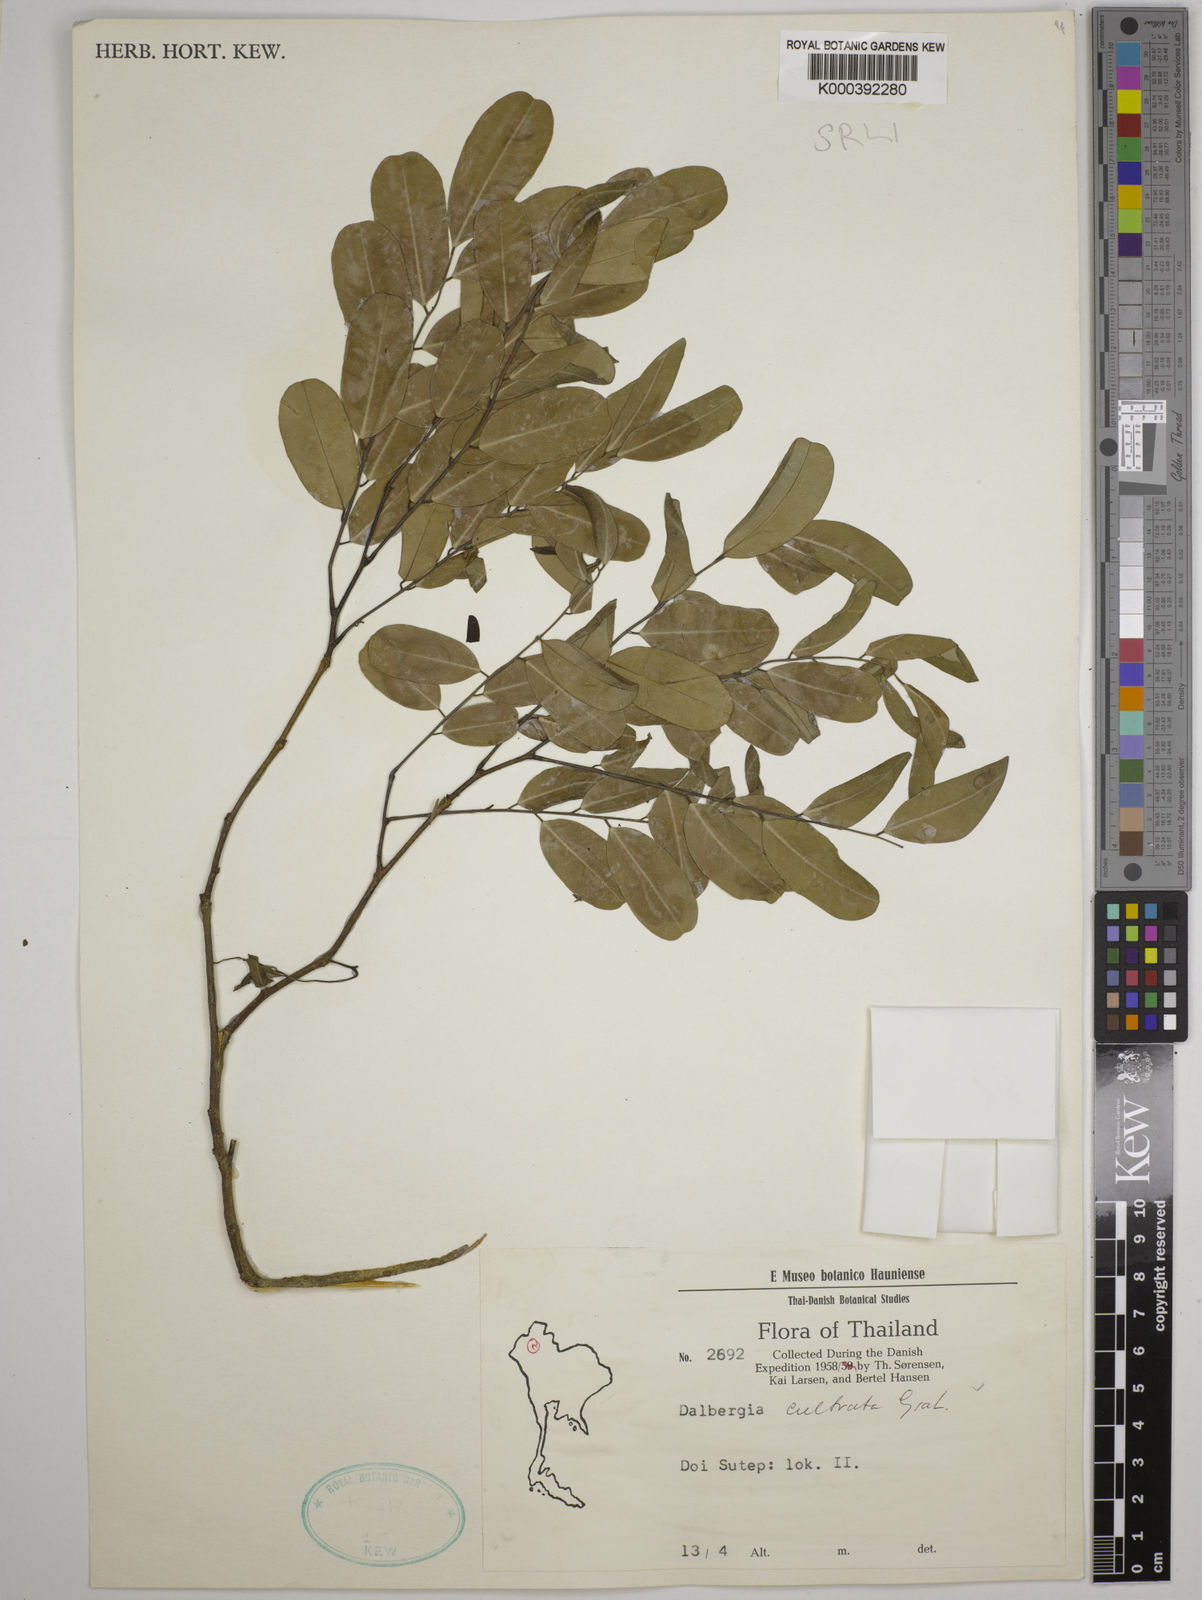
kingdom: Plantae
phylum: Tracheophyta
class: Magnoliopsida
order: Fabales
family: Fabaceae
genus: Dalbergia
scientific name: Dalbergia
